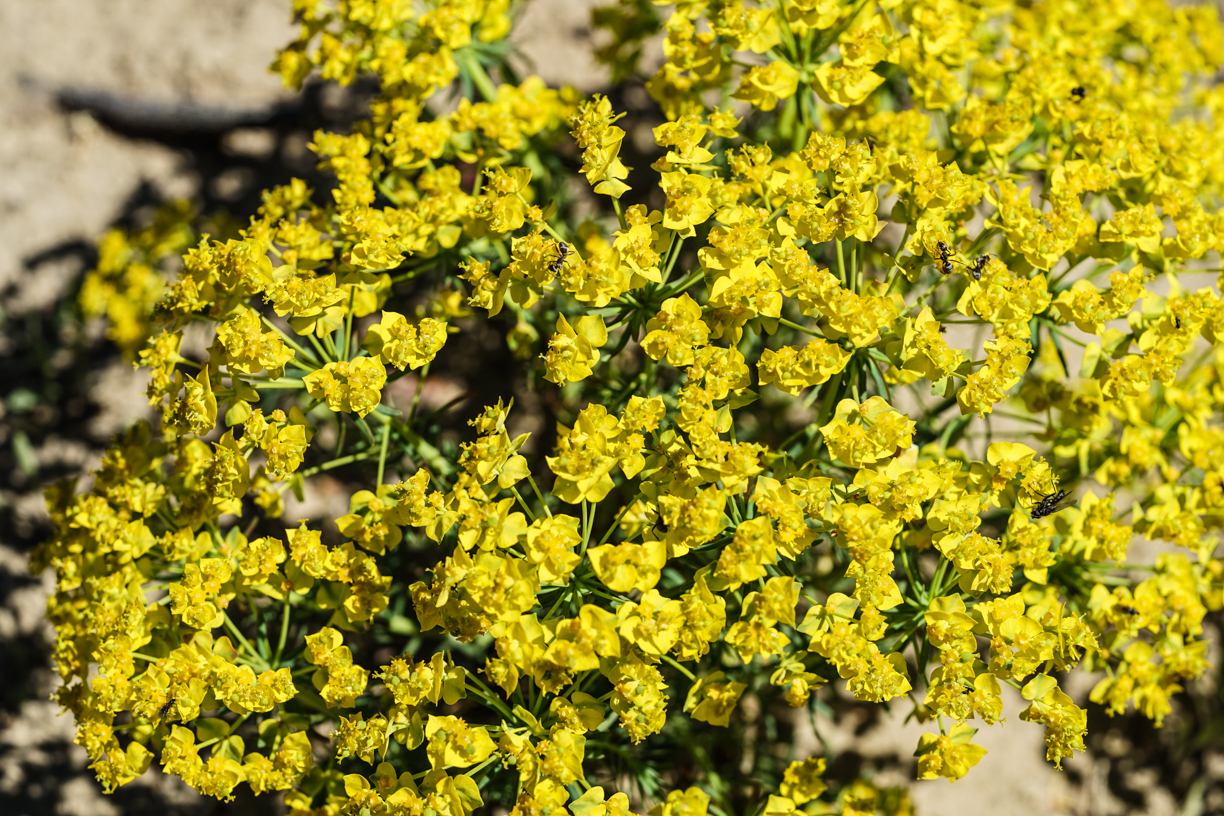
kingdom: Plantae
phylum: Tracheophyta
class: Magnoliopsida
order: Malpighiales
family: Euphorbiaceae
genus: Euphorbia
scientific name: Euphorbia cyparissias
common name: Cypress spurge
